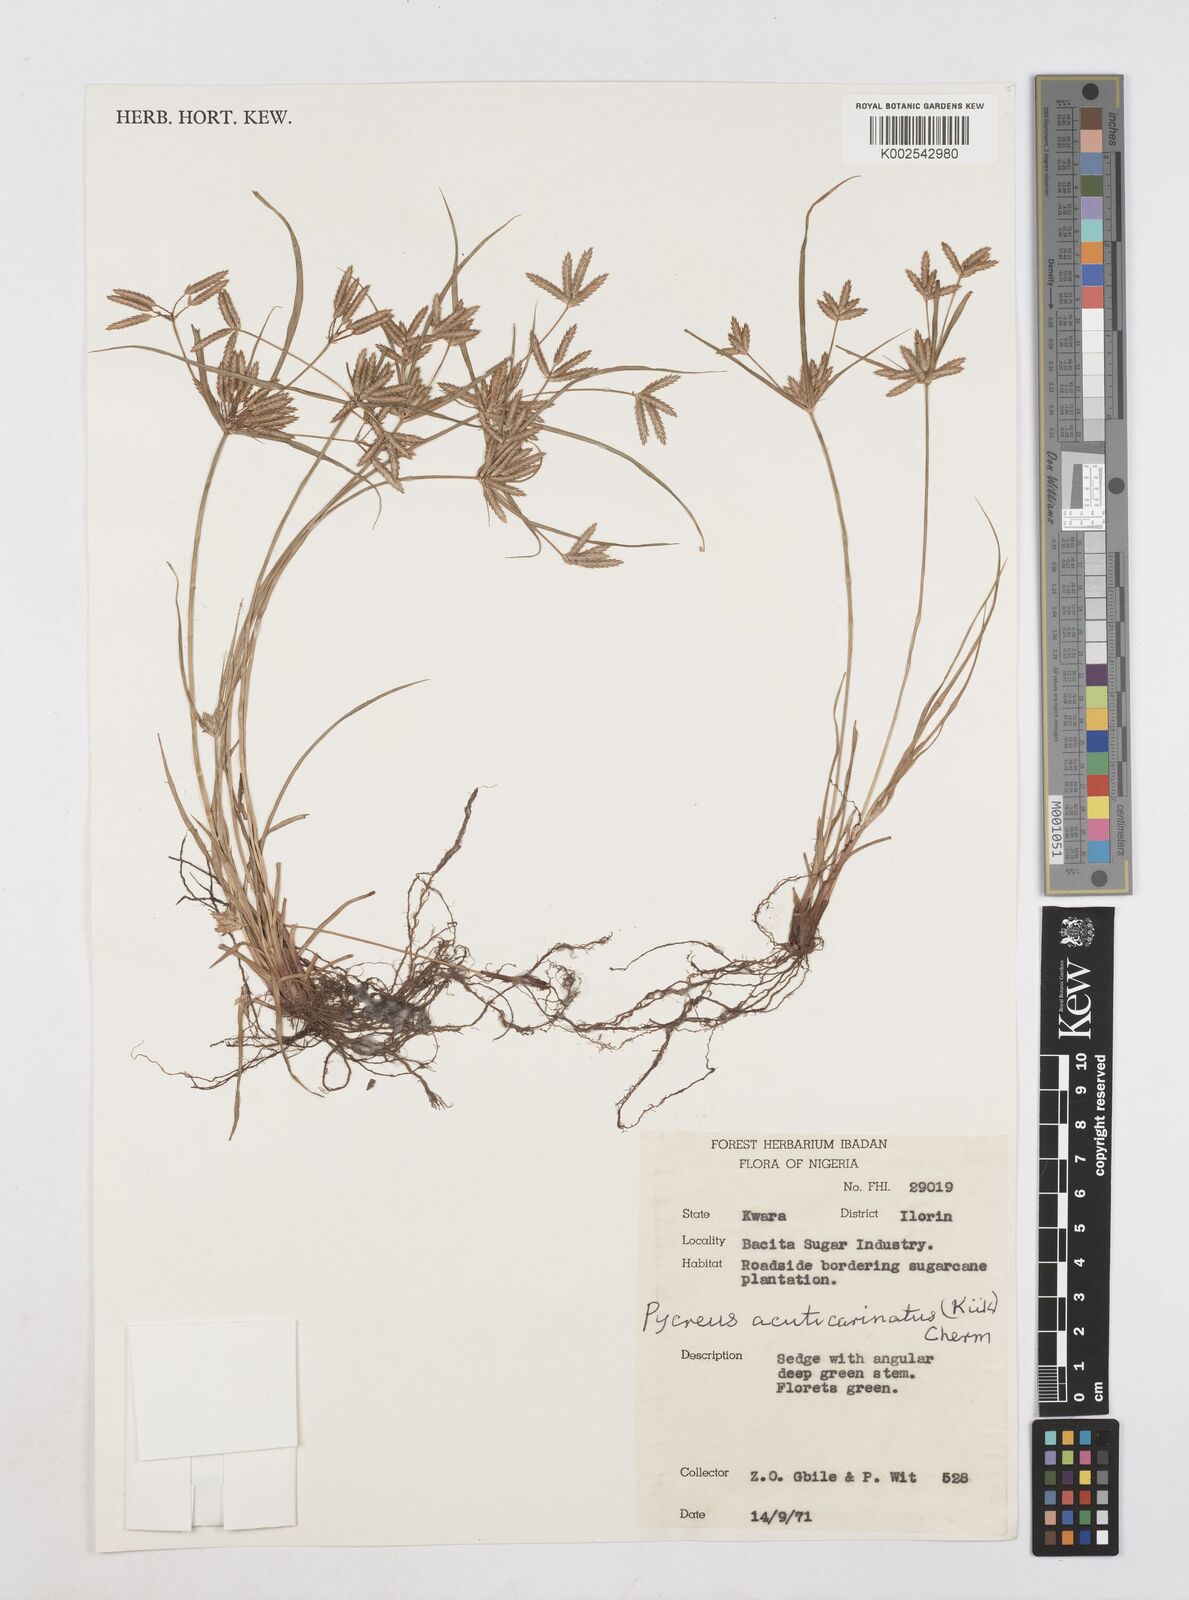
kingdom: Plantae
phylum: Tracheophyta
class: Liliopsida
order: Poales
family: Cyperaceae
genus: Cyperus
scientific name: Cyperus acuticarinatus
